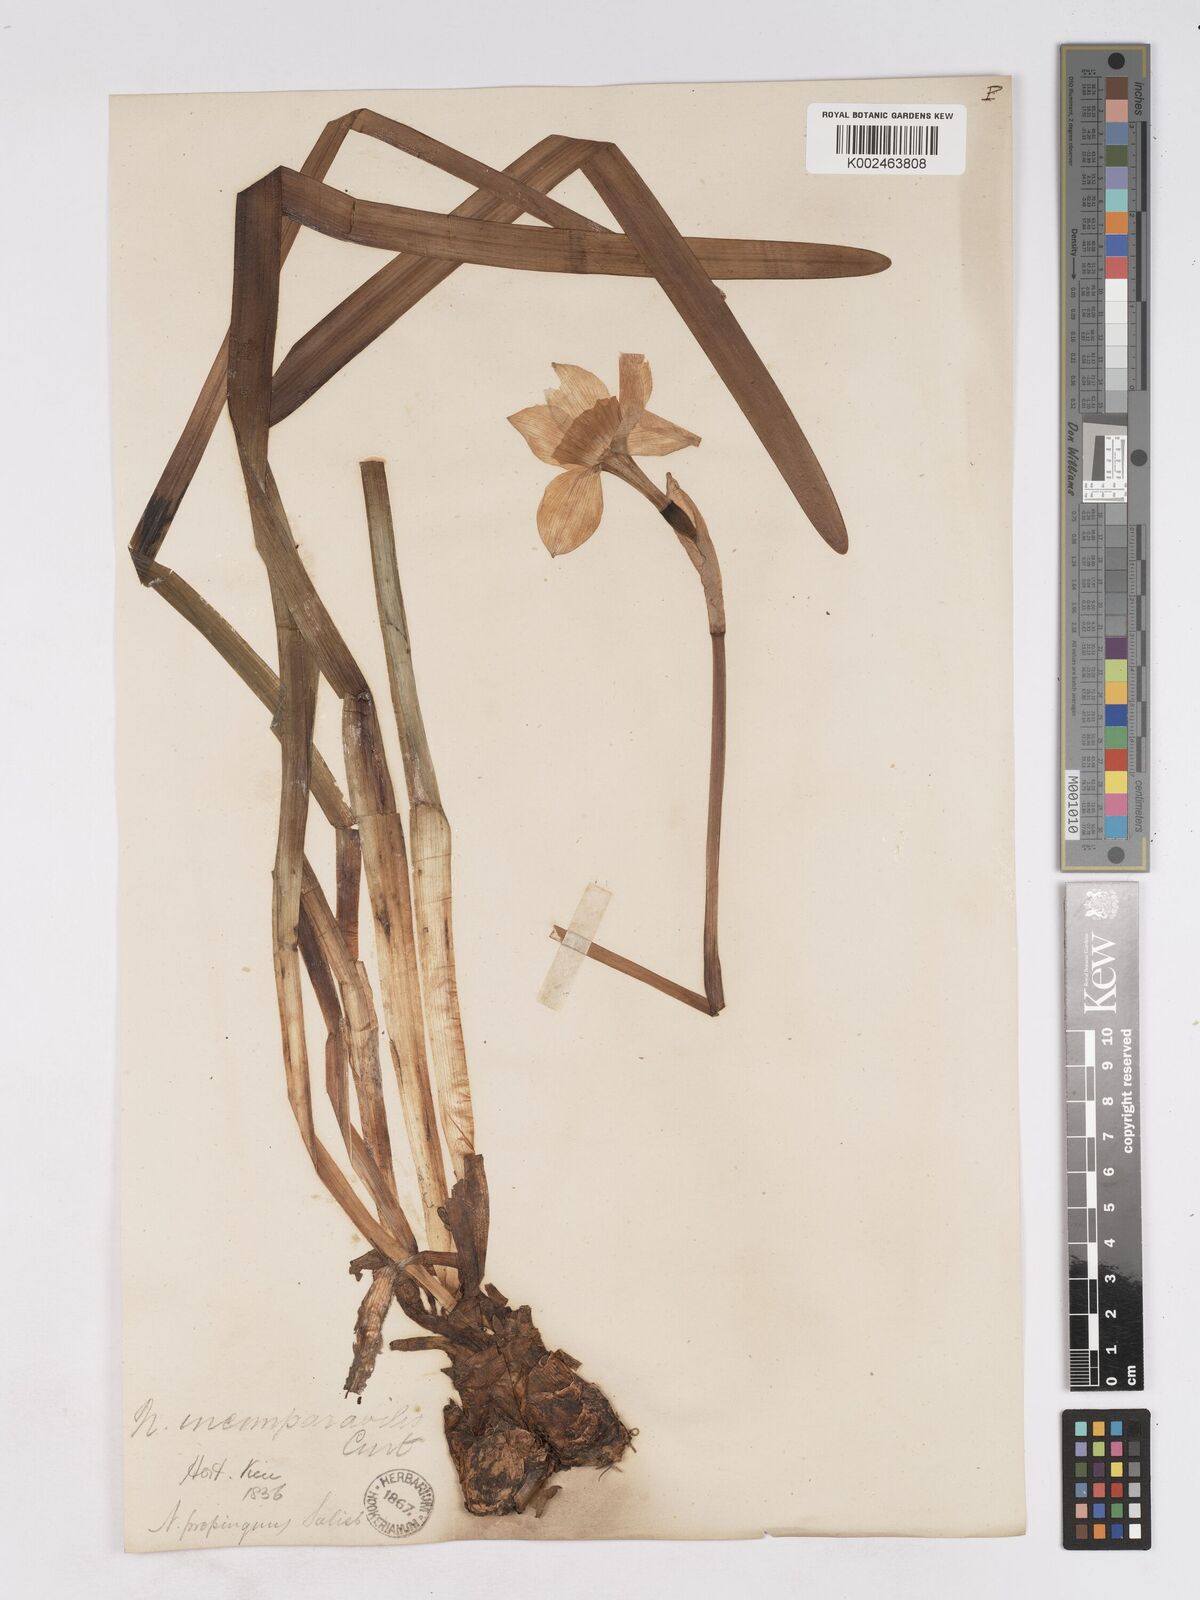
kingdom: Plantae
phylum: Tracheophyta
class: Liliopsida
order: Asparagales
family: Amaryllidaceae
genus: Narcissus
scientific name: Narcissus incomparabilis
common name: Nonesuch daffodil
